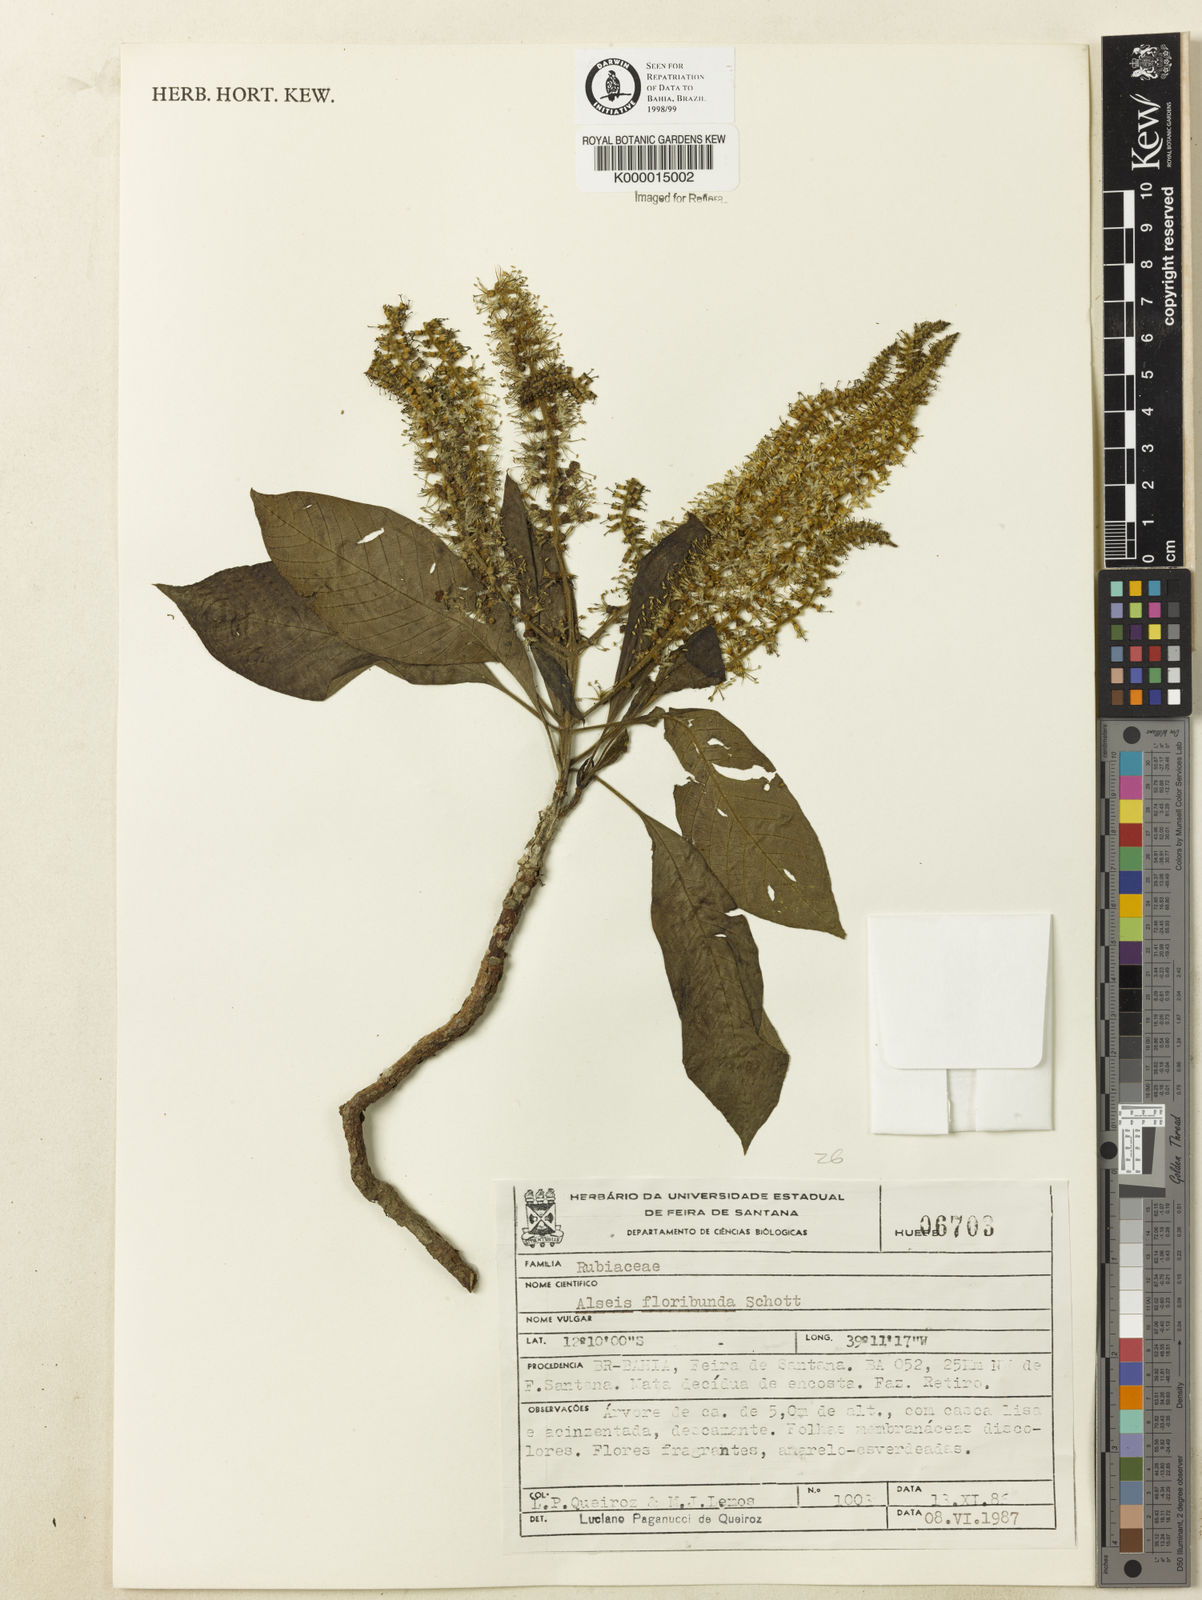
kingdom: Plantae
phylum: Tracheophyta
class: Magnoliopsida
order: Gentianales
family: Rubiaceae
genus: Alseis
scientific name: Alseis floribunda
